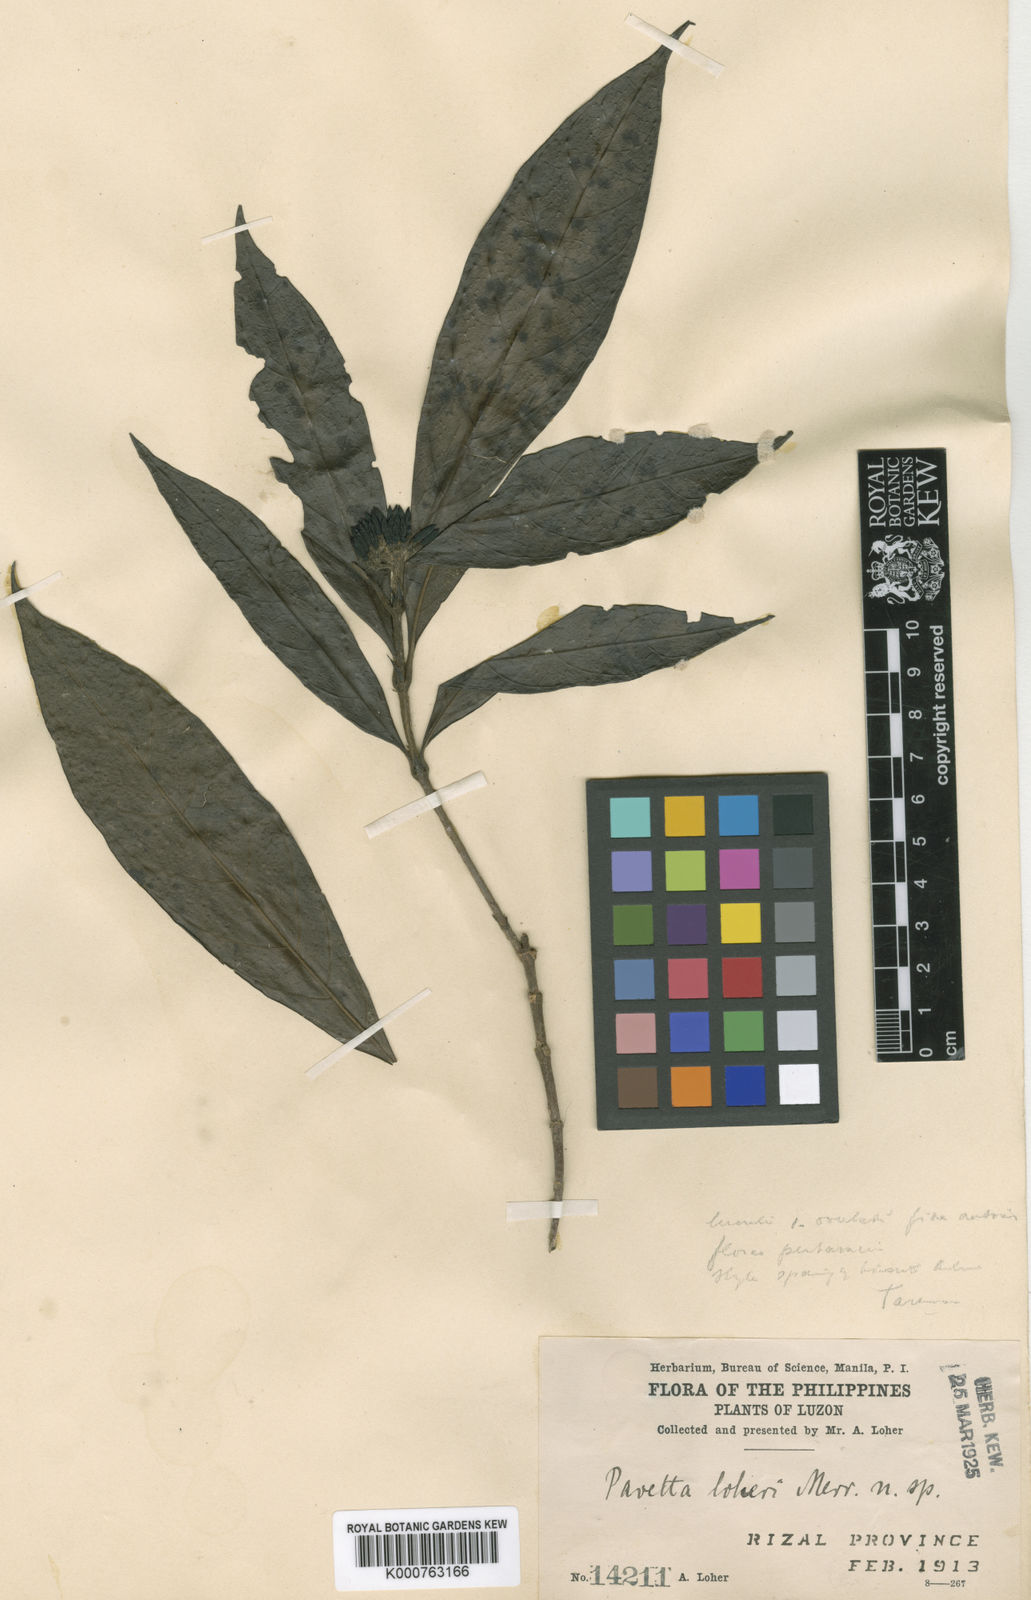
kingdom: Plantae
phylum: Tracheophyta
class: Magnoliopsida
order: Gentianales
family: Rubiaceae
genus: Tarenna
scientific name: Tarenna loheri
